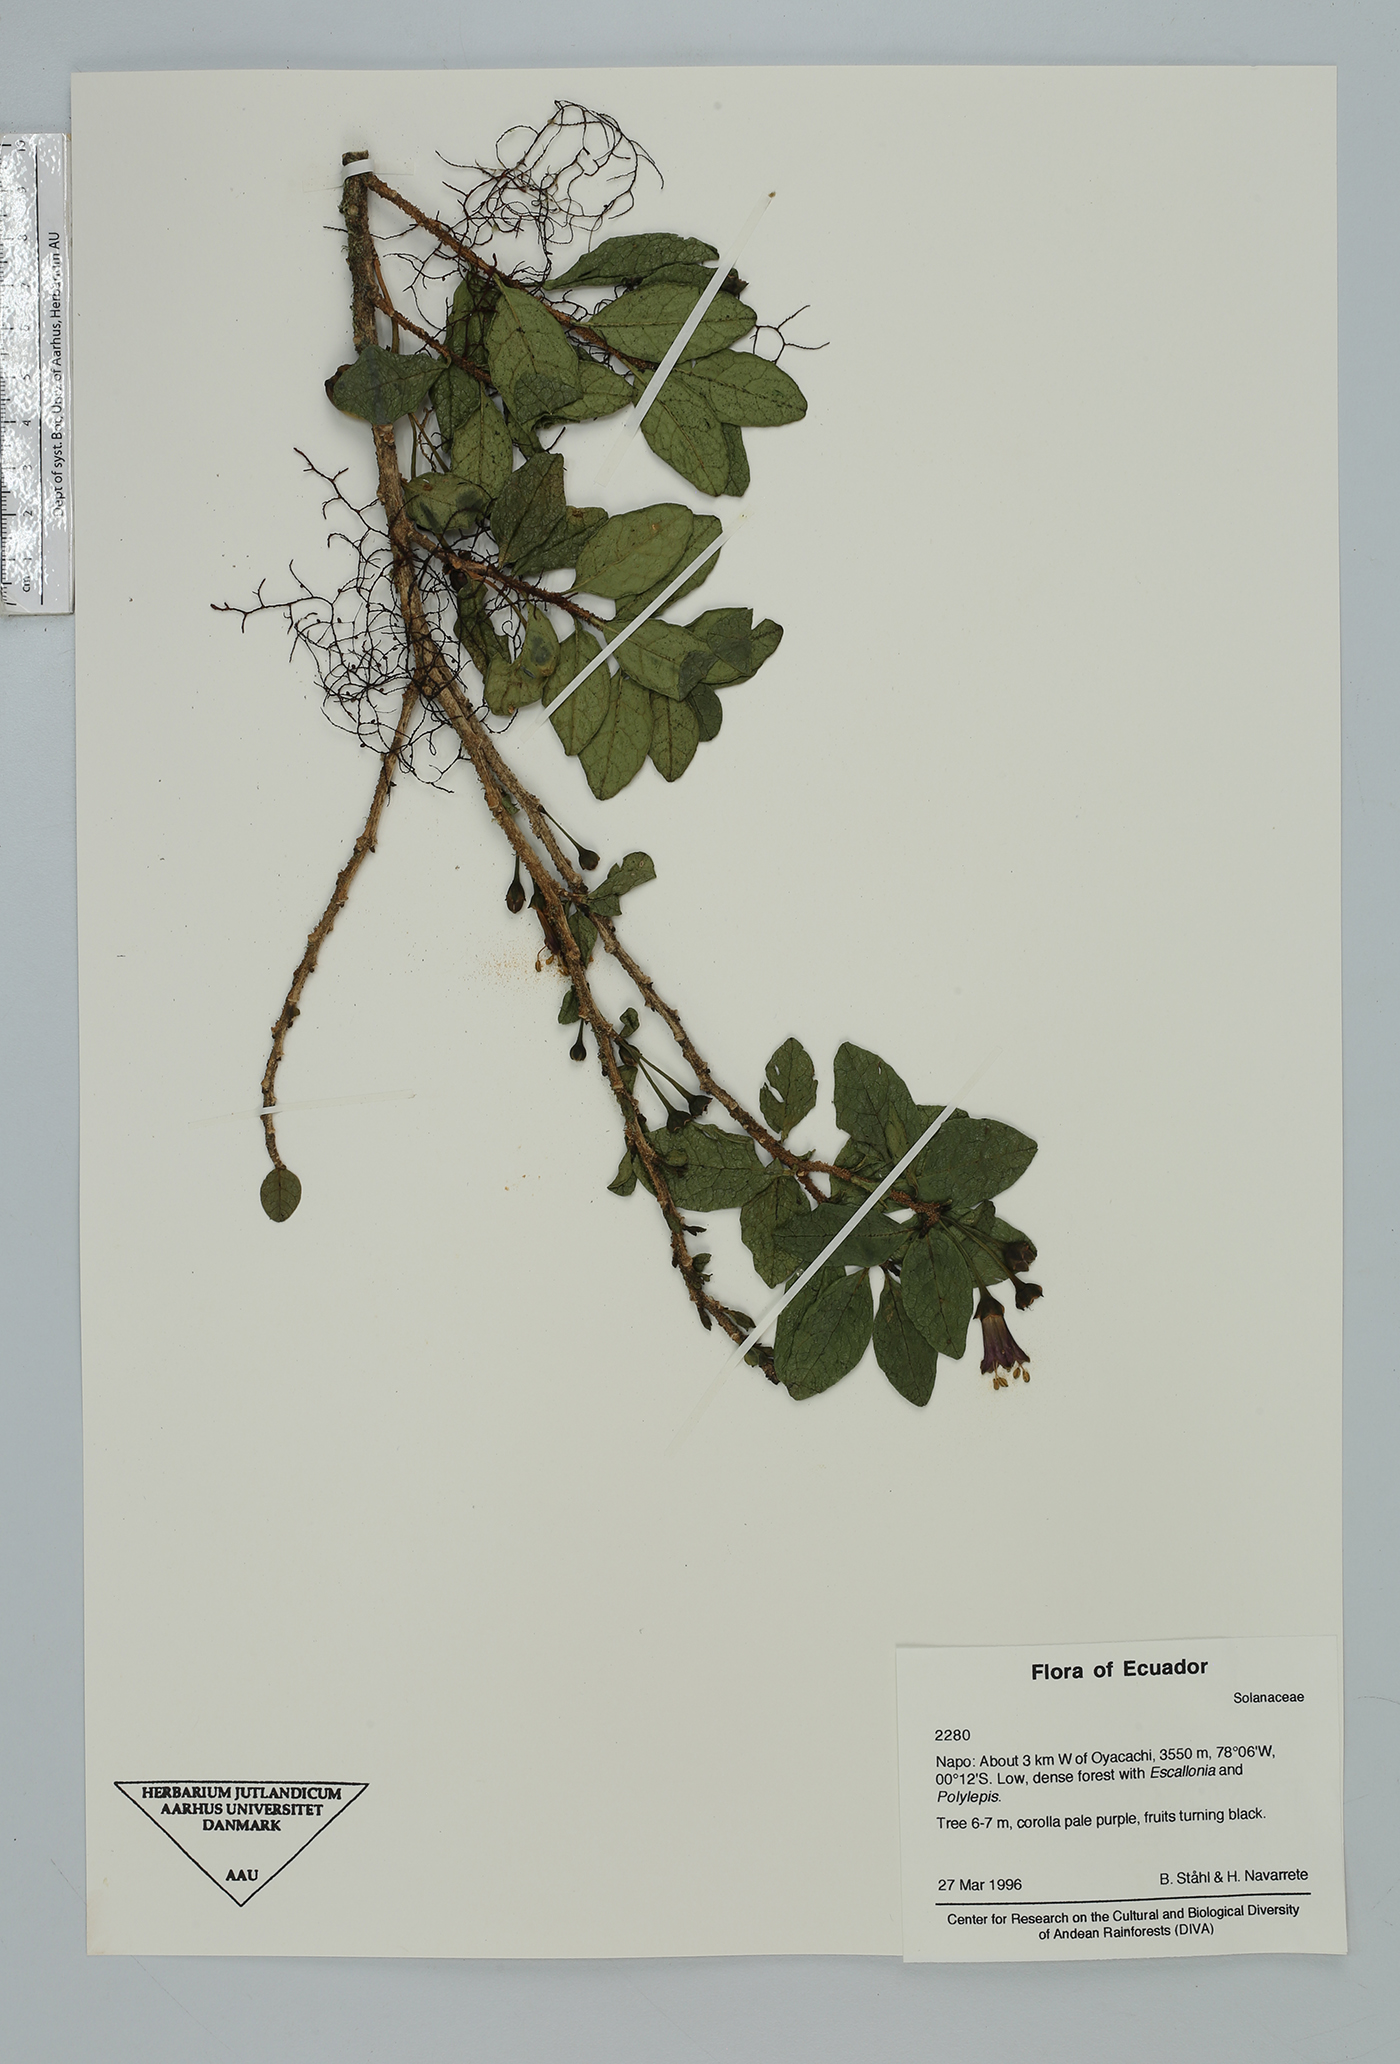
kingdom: Plantae
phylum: Tracheophyta
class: Magnoliopsida
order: Solanales
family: Solanaceae
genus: Saracha
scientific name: Saracha quitensis
